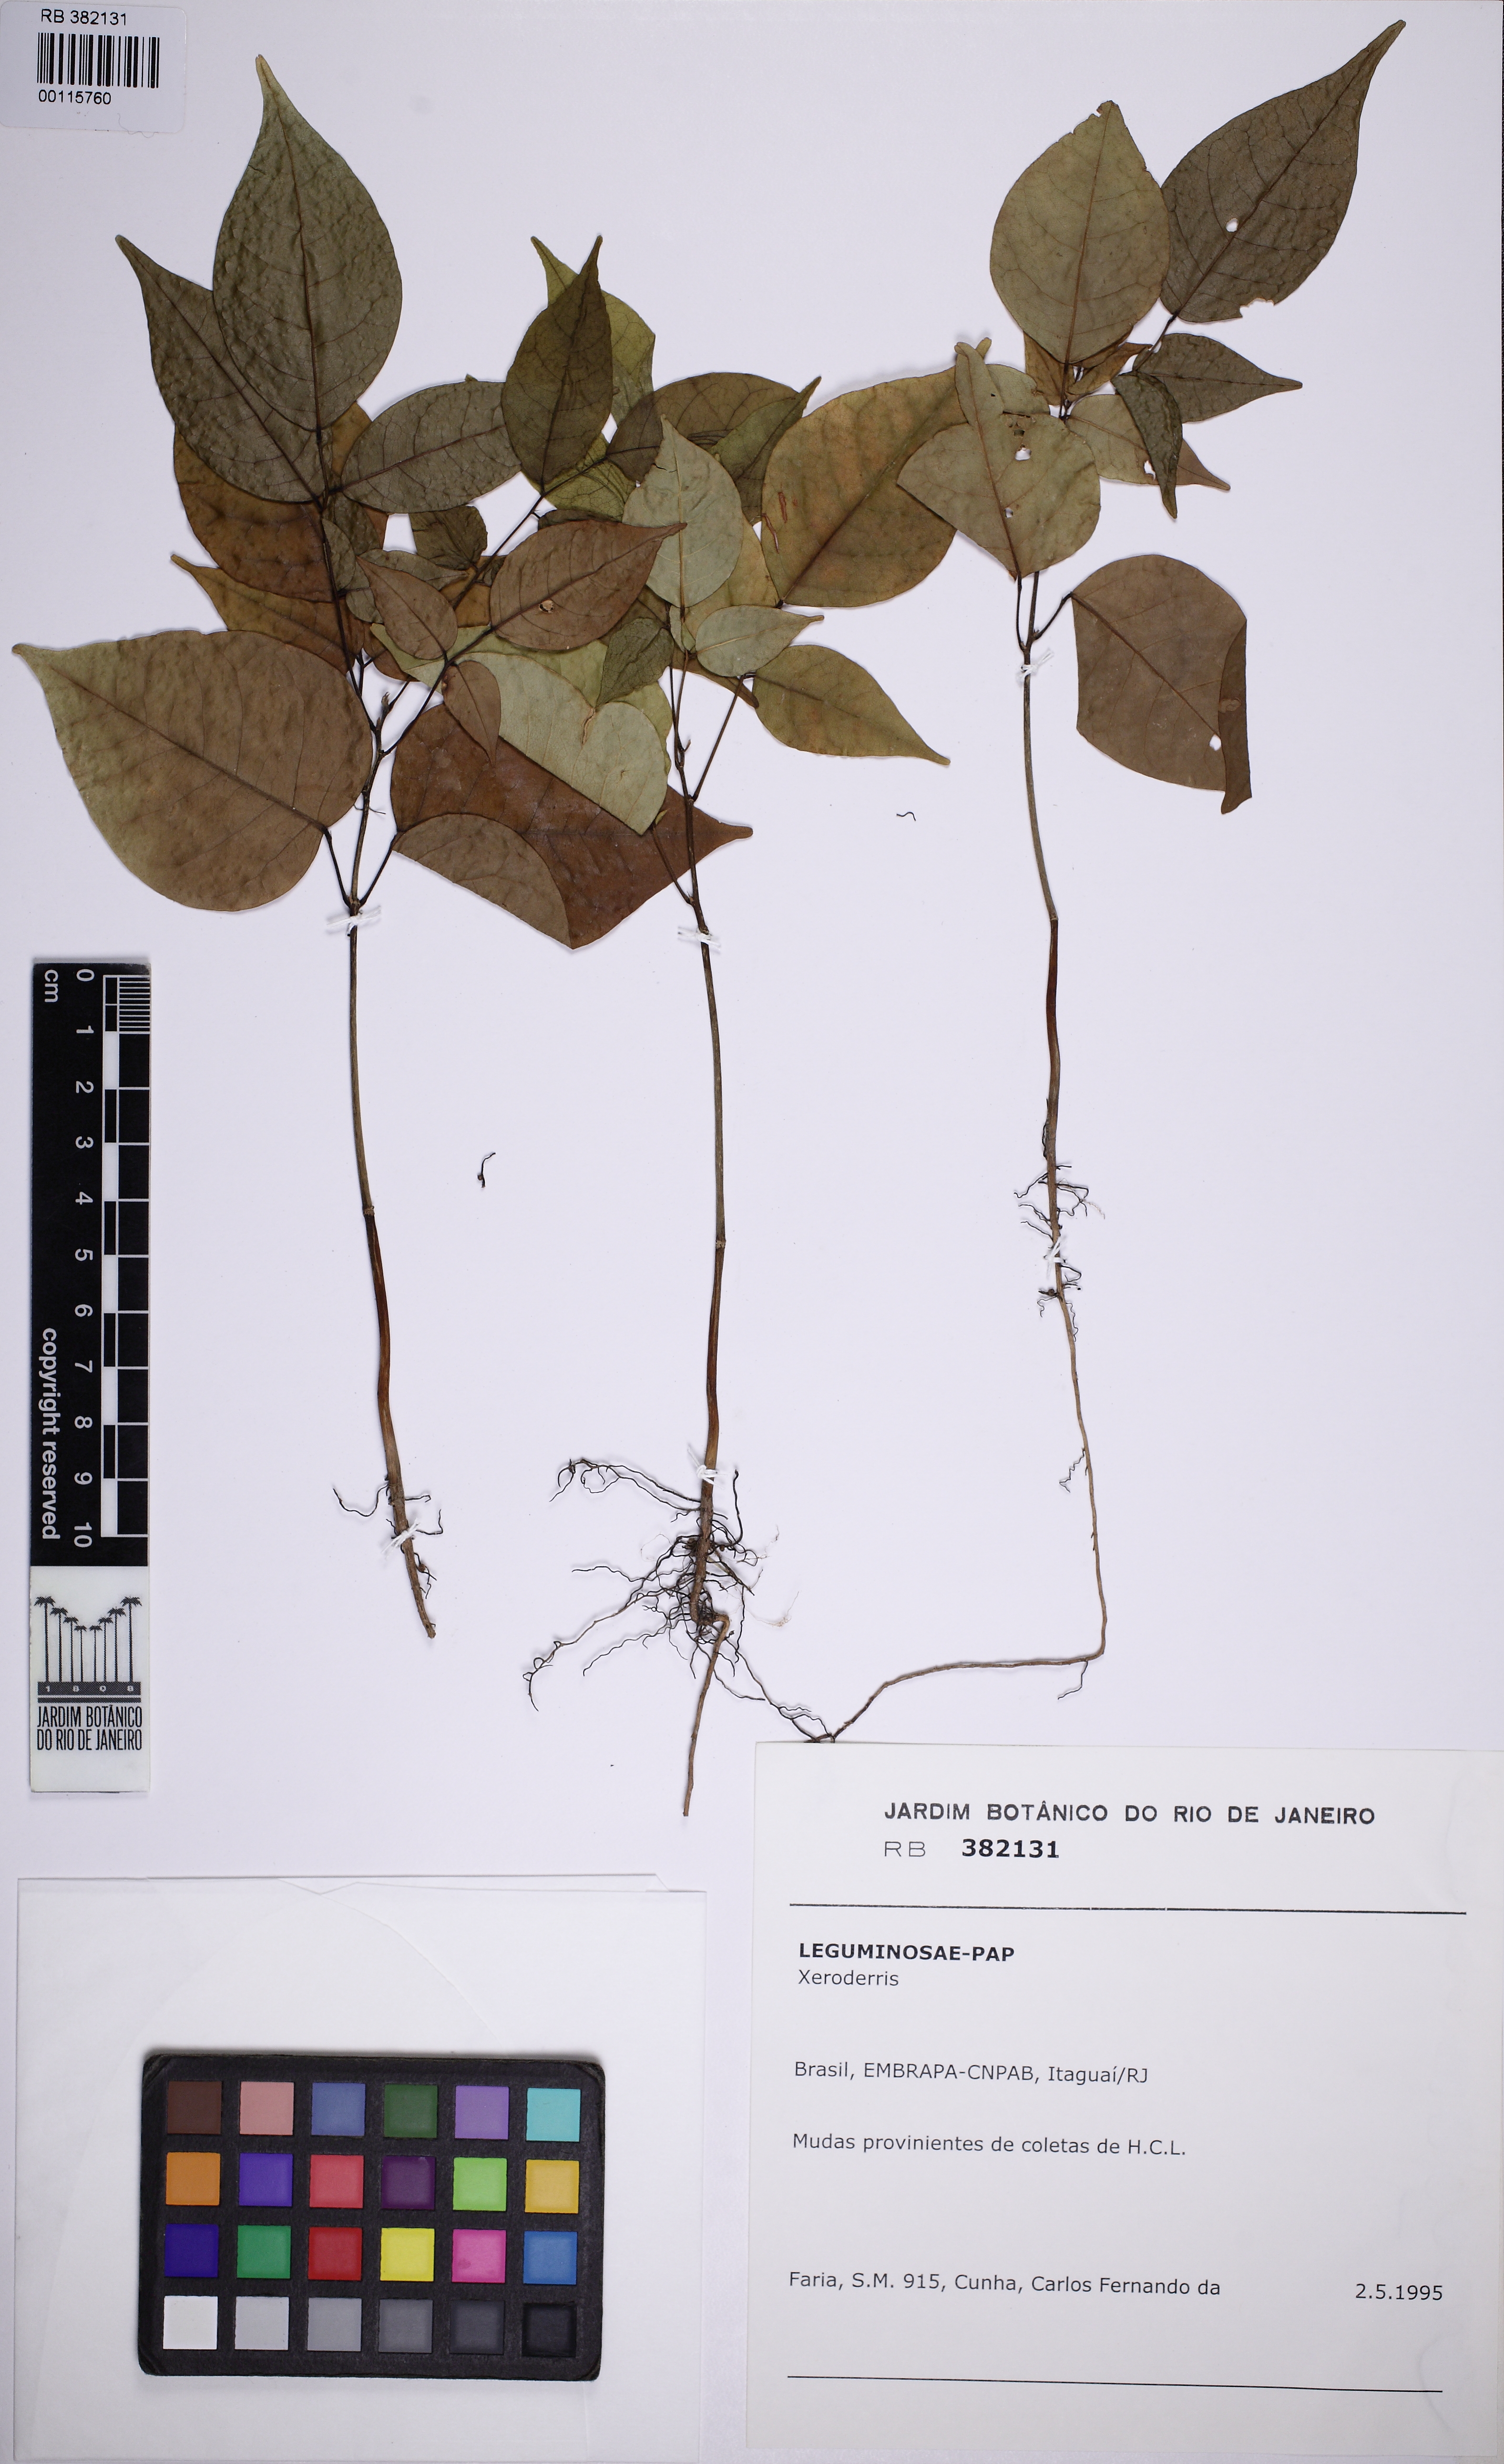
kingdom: Plantae
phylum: Tracheophyta
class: Magnoliopsida
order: Fabales
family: Fabaceae
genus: Aganope
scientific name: Aganope
